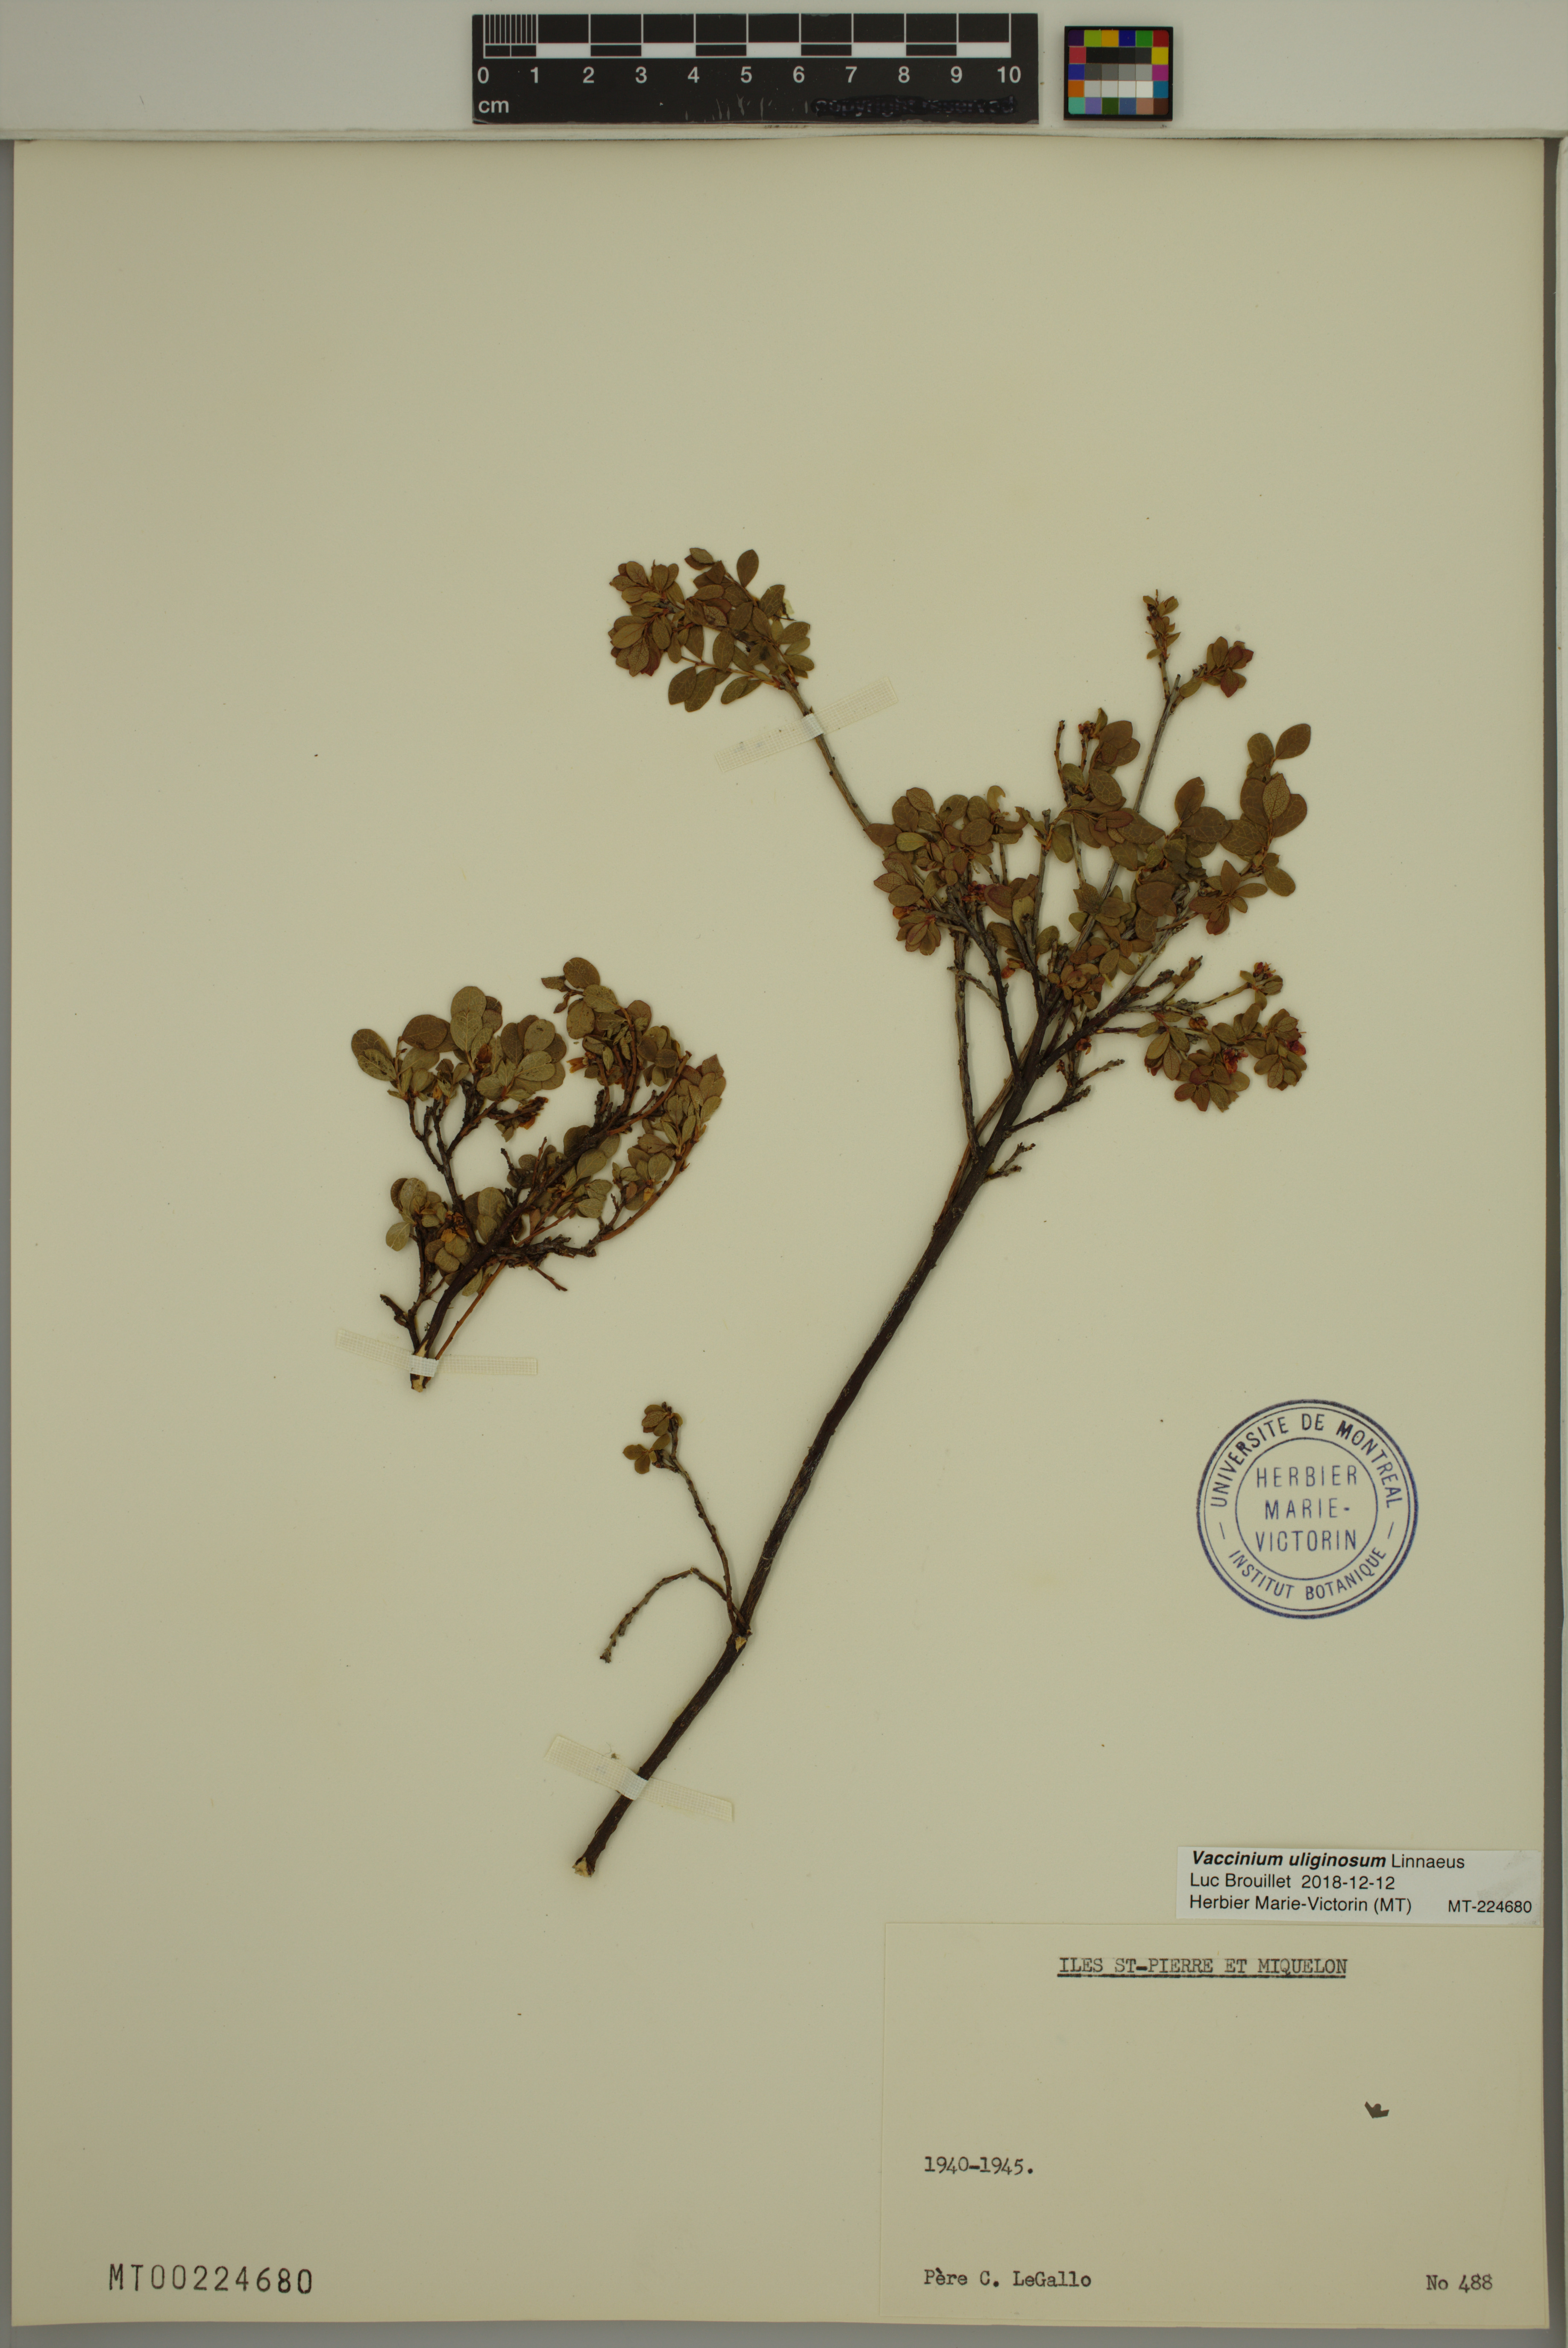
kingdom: Plantae
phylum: Tracheophyta
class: Magnoliopsida
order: Ericales
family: Ericaceae
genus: Vaccinium
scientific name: Vaccinium uliginosum
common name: Bog bilberry
